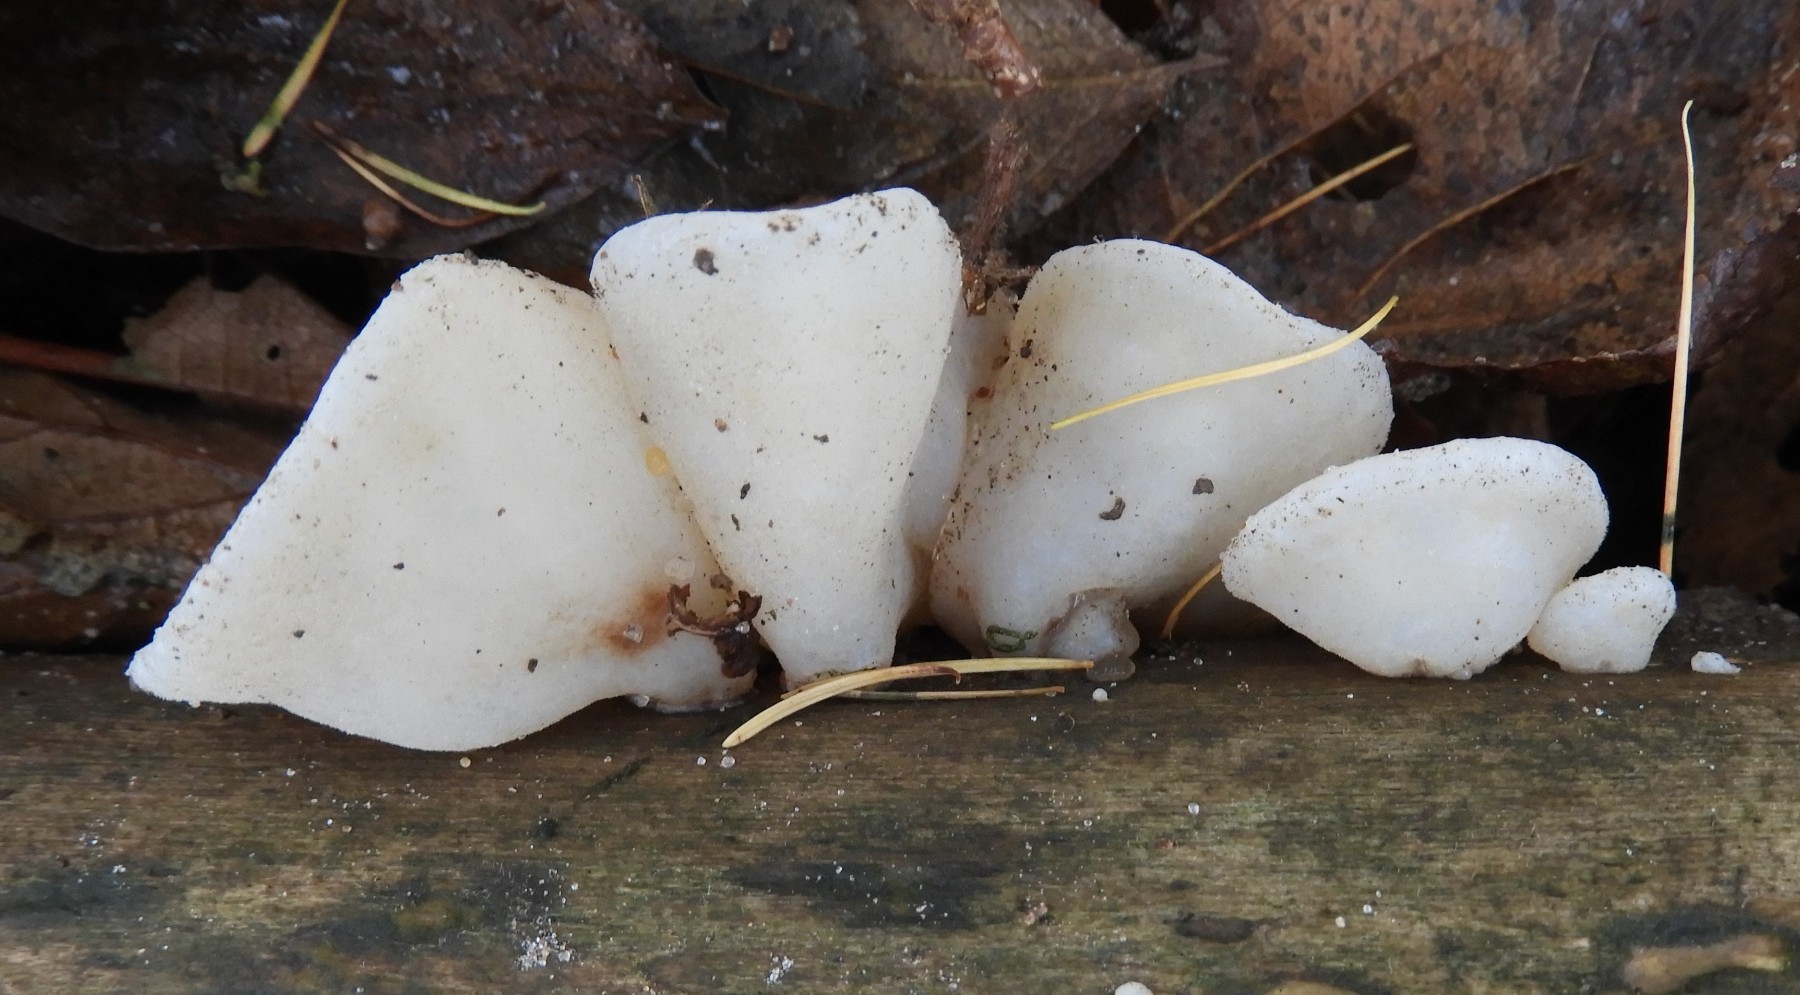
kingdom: Fungi
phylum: Basidiomycota
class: Agaricomycetes
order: Auriculariales
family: Auriculariaceae
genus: Auricularia
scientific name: Auricularia auricula-judae
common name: almindelig judasøre
